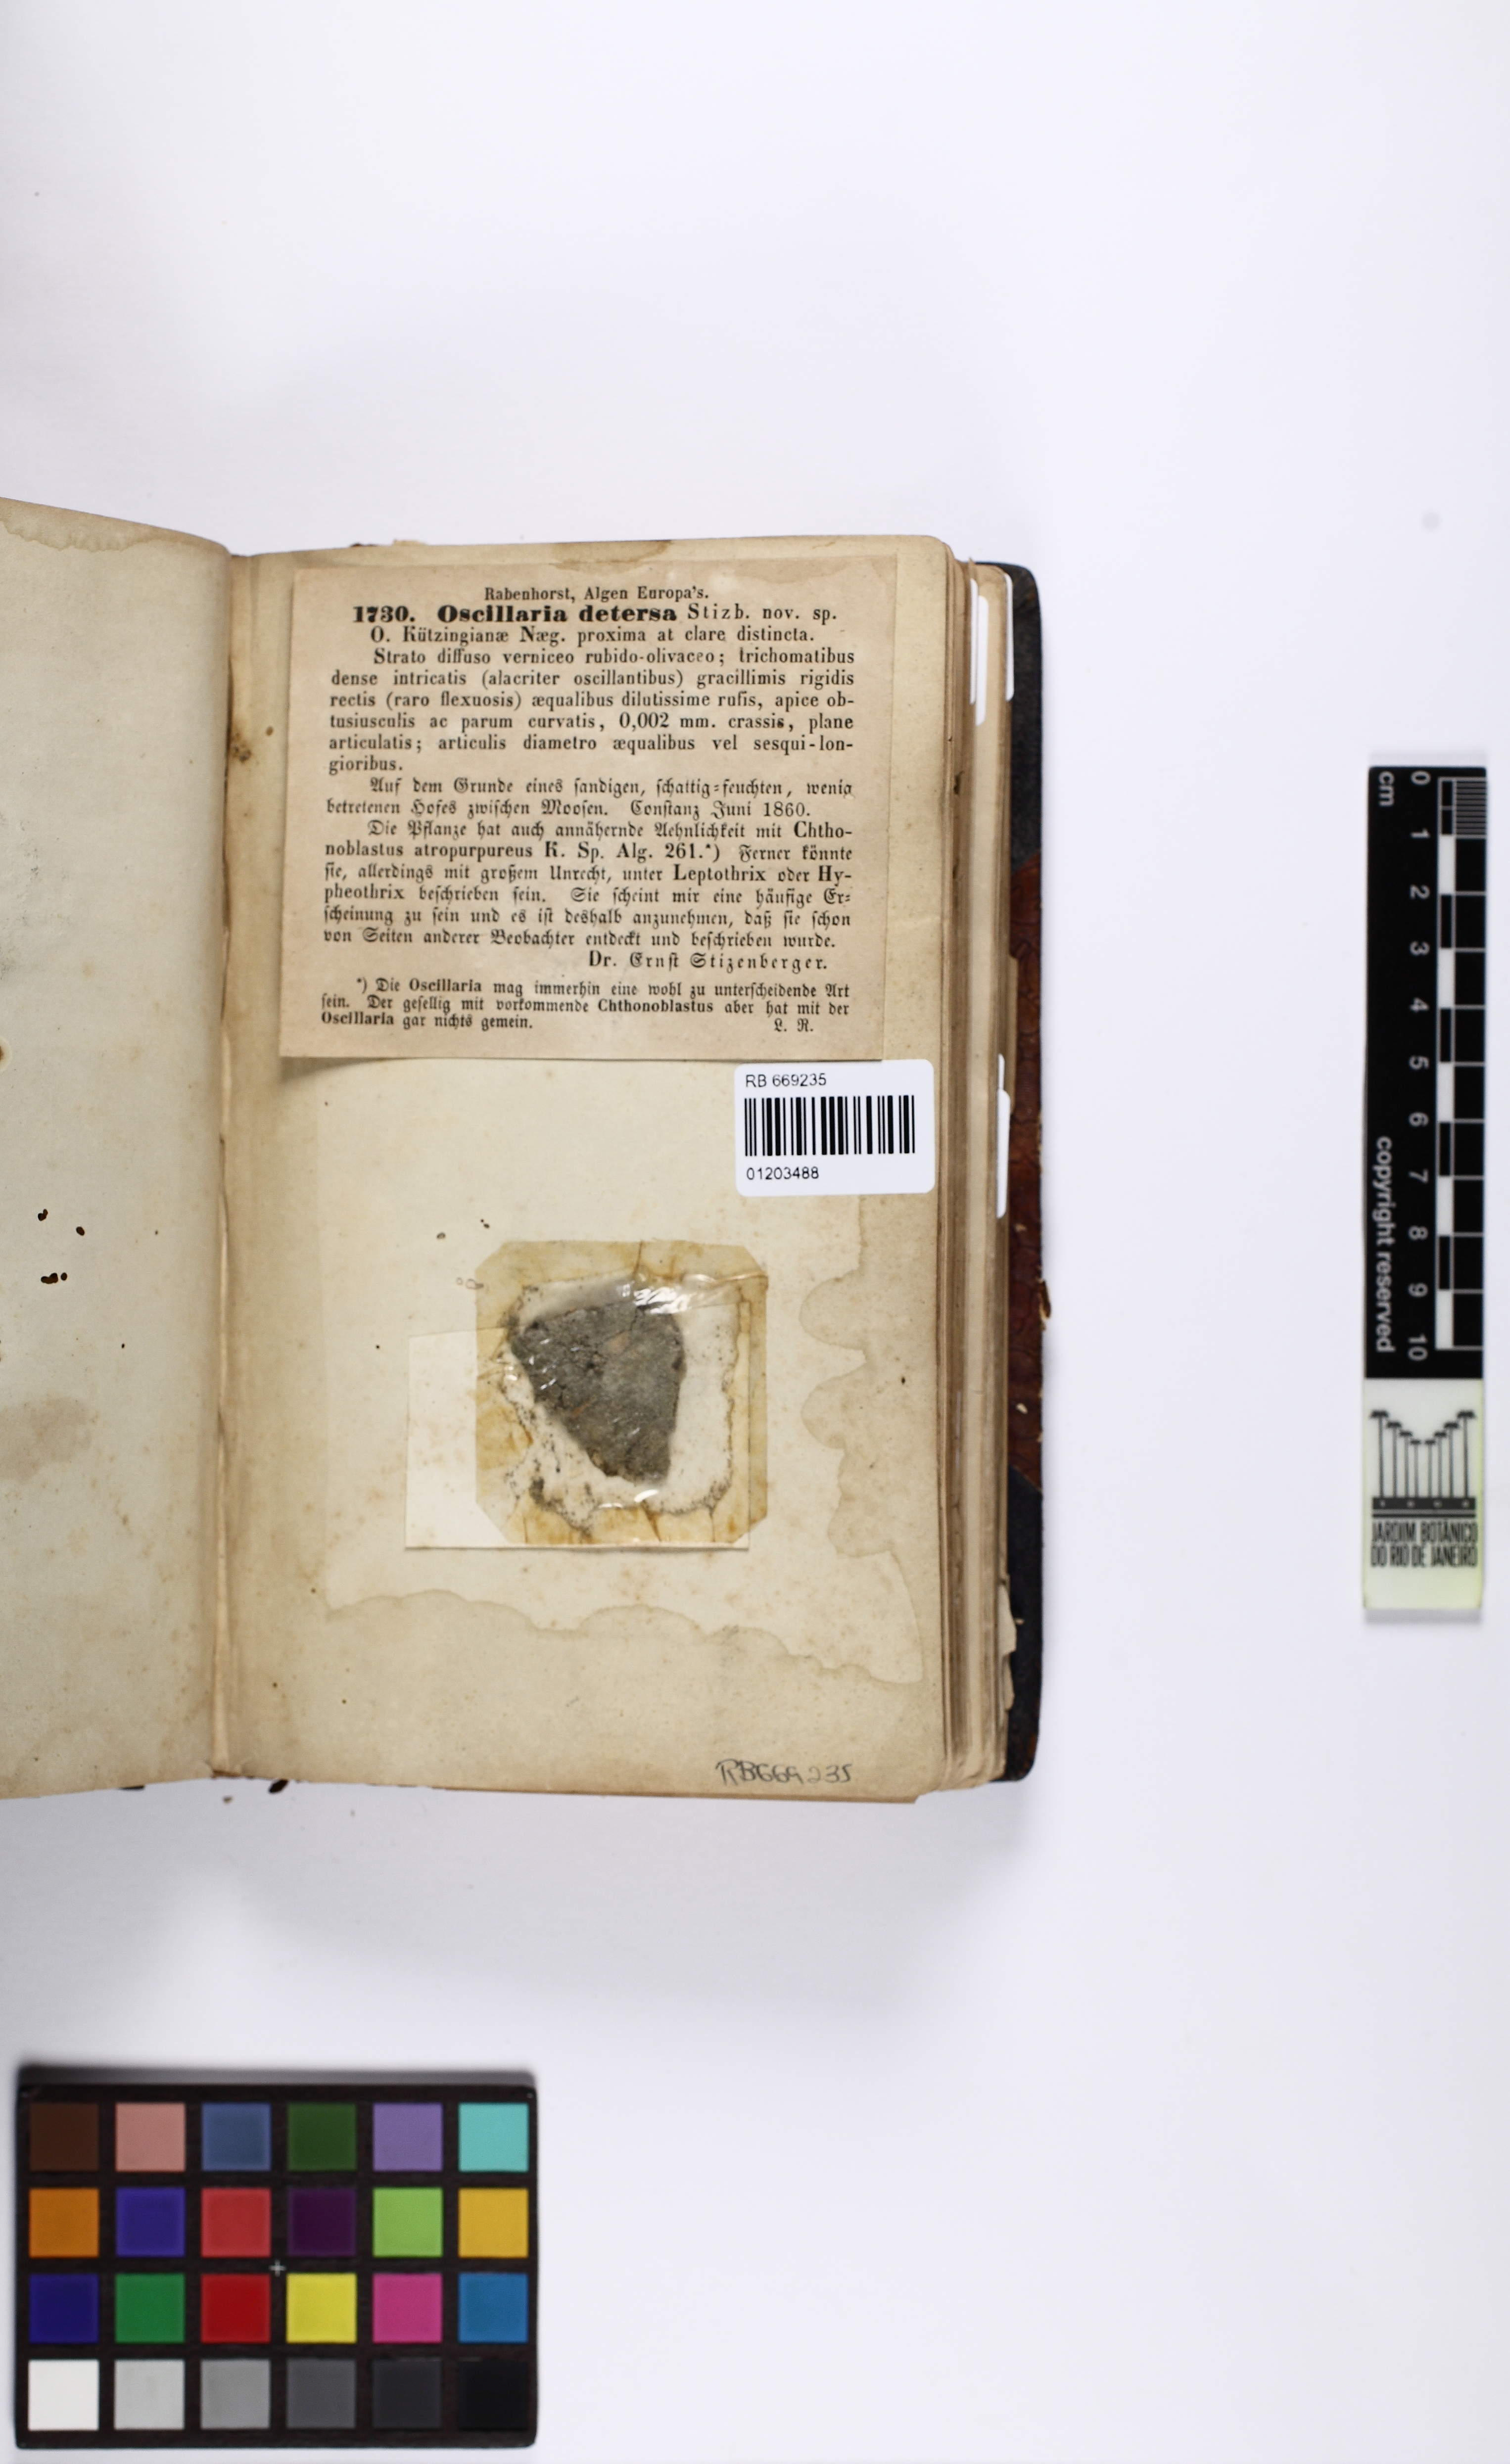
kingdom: Bacteria
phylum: Cyanobacteria
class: Cyanobacteriia
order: Cyanobacteriales
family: Oscillatoriaceae
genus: Oscillatoria
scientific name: Oscillatoria
